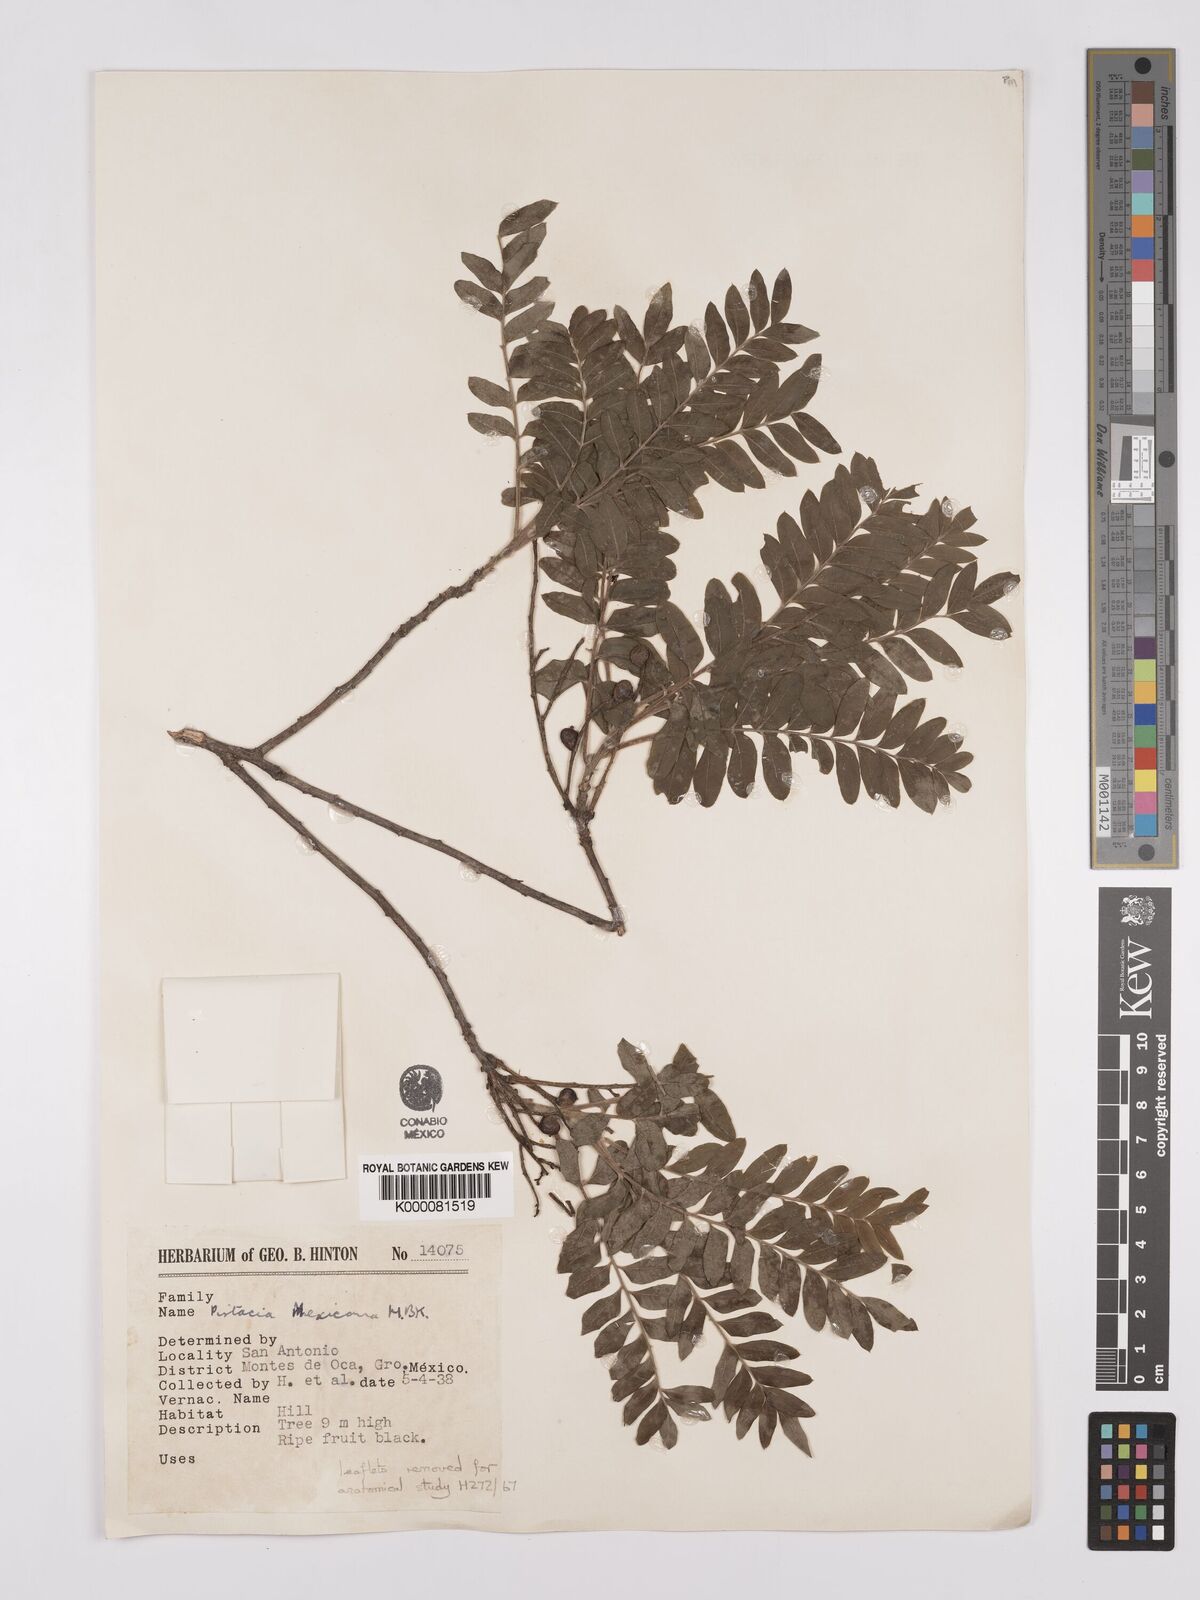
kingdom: Plantae
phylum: Tracheophyta
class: Magnoliopsida
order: Sapindales
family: Anacardiaceae
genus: Pistacia
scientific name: Pistacia mexicana
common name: Mexican pistachio
